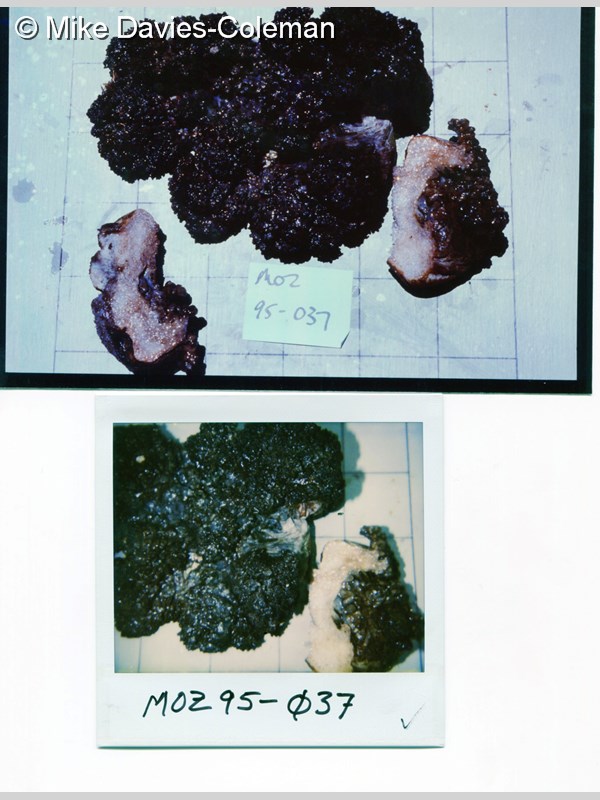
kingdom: Animalia
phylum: Cnidaria
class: Anthozoa
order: Malacalcyonacea
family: Alcyoniidae
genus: Alcyonium
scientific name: Alcyonium
